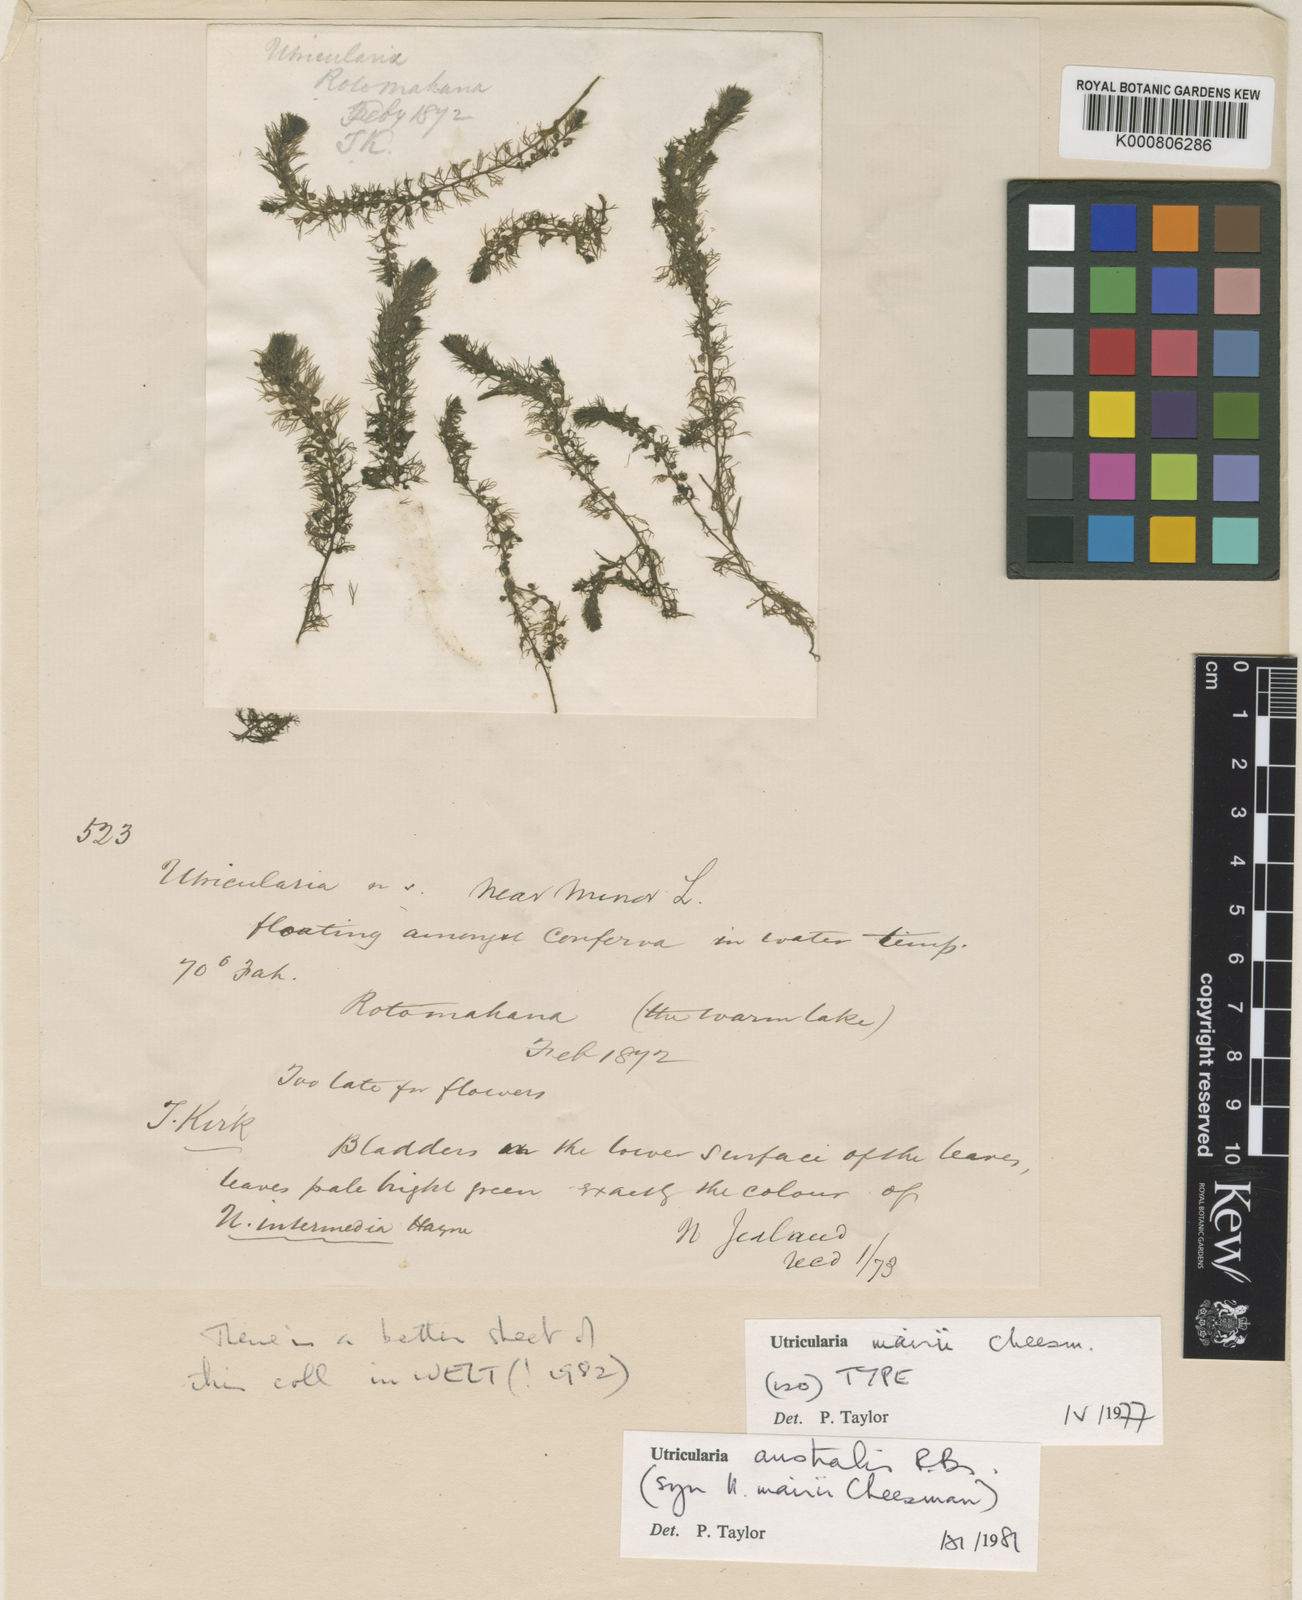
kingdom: Plantae
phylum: Tracheophyta
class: Magnoliopsida
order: Lamiales
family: Lentibulariaceae
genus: Utricularia
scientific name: Utricularia australis
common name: Bladderwort
